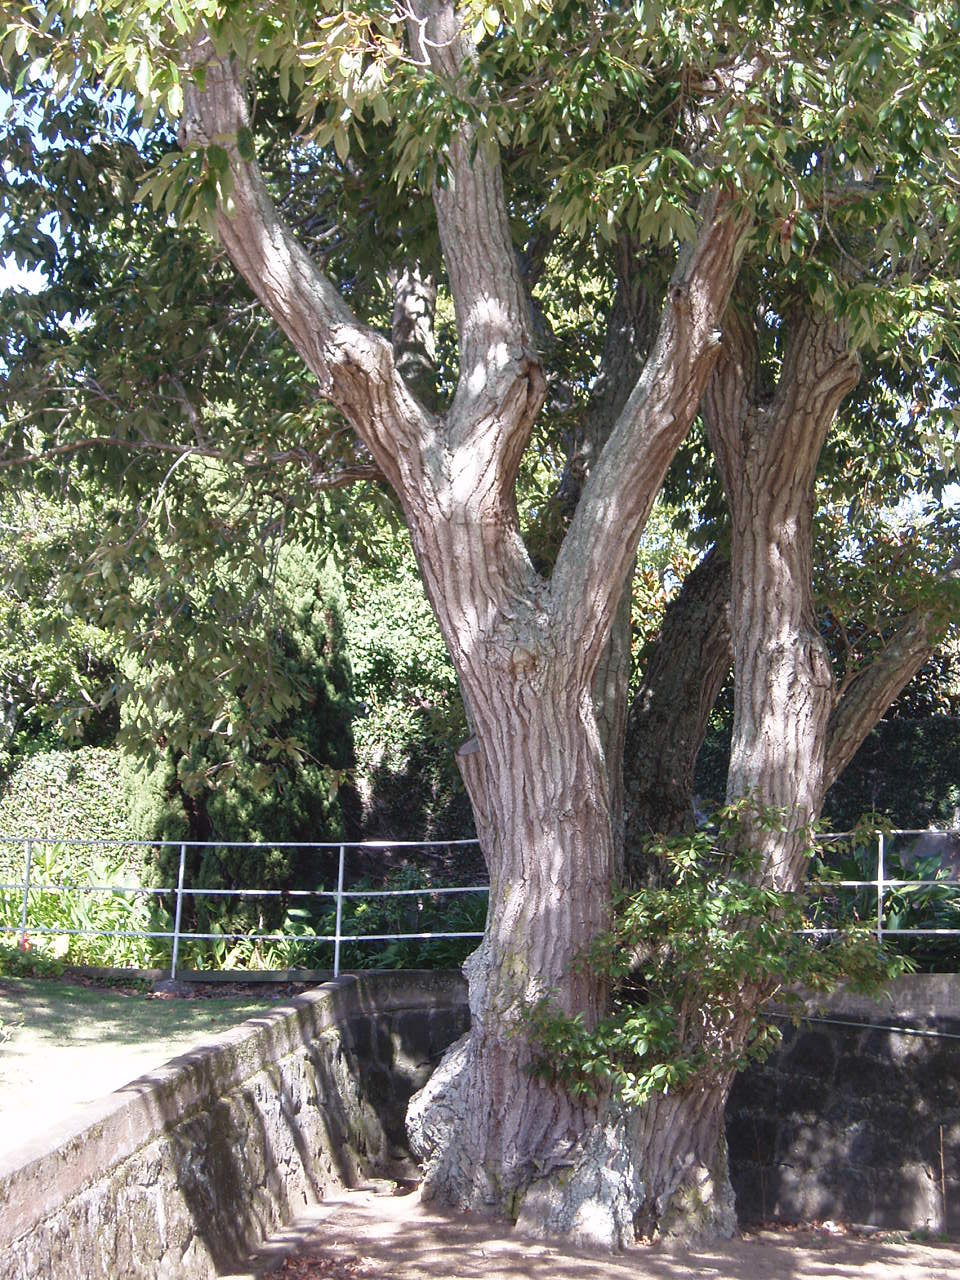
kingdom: Plantae
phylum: Tracheophyta
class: Magnoliopsida
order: Fagales
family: Fagaceae
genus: Quercus
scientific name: Quercus aliena
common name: Oriental white oak
